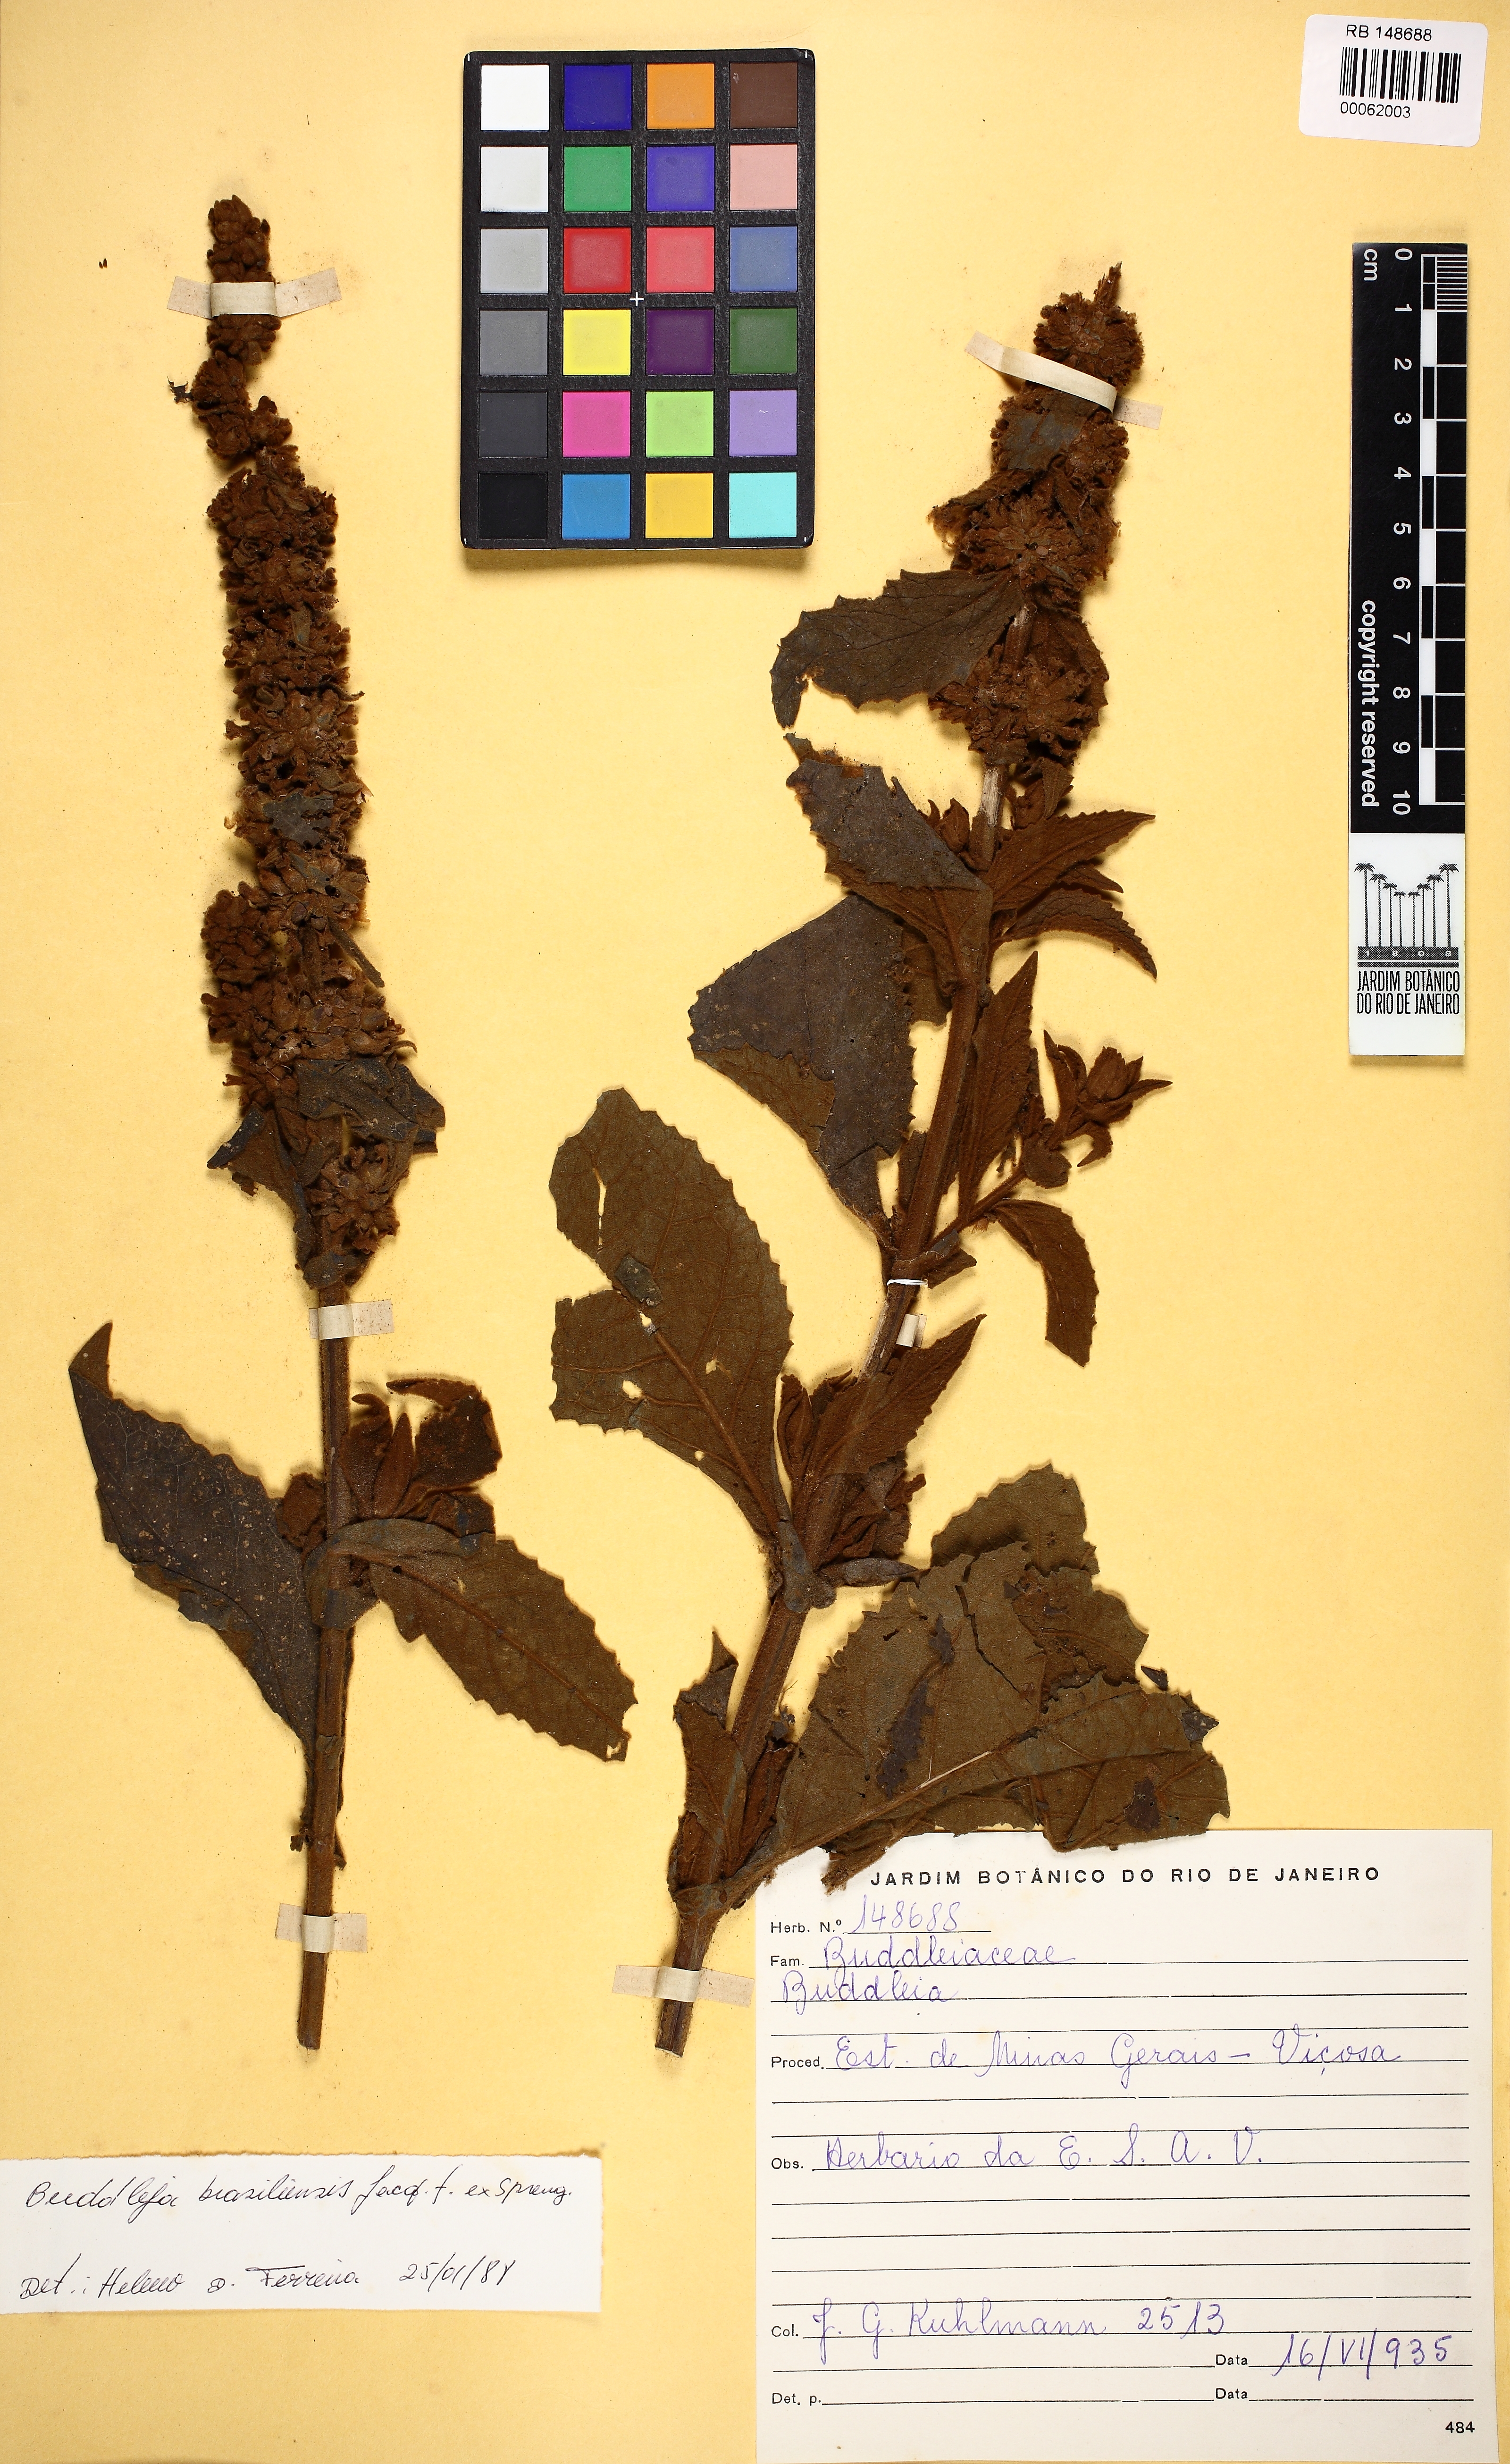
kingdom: Plantae
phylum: Tracheophyta
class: Magnoliopsida
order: Lamiales
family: Scrophulariaceae
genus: Buddleja
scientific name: Buddleja stachyoides
